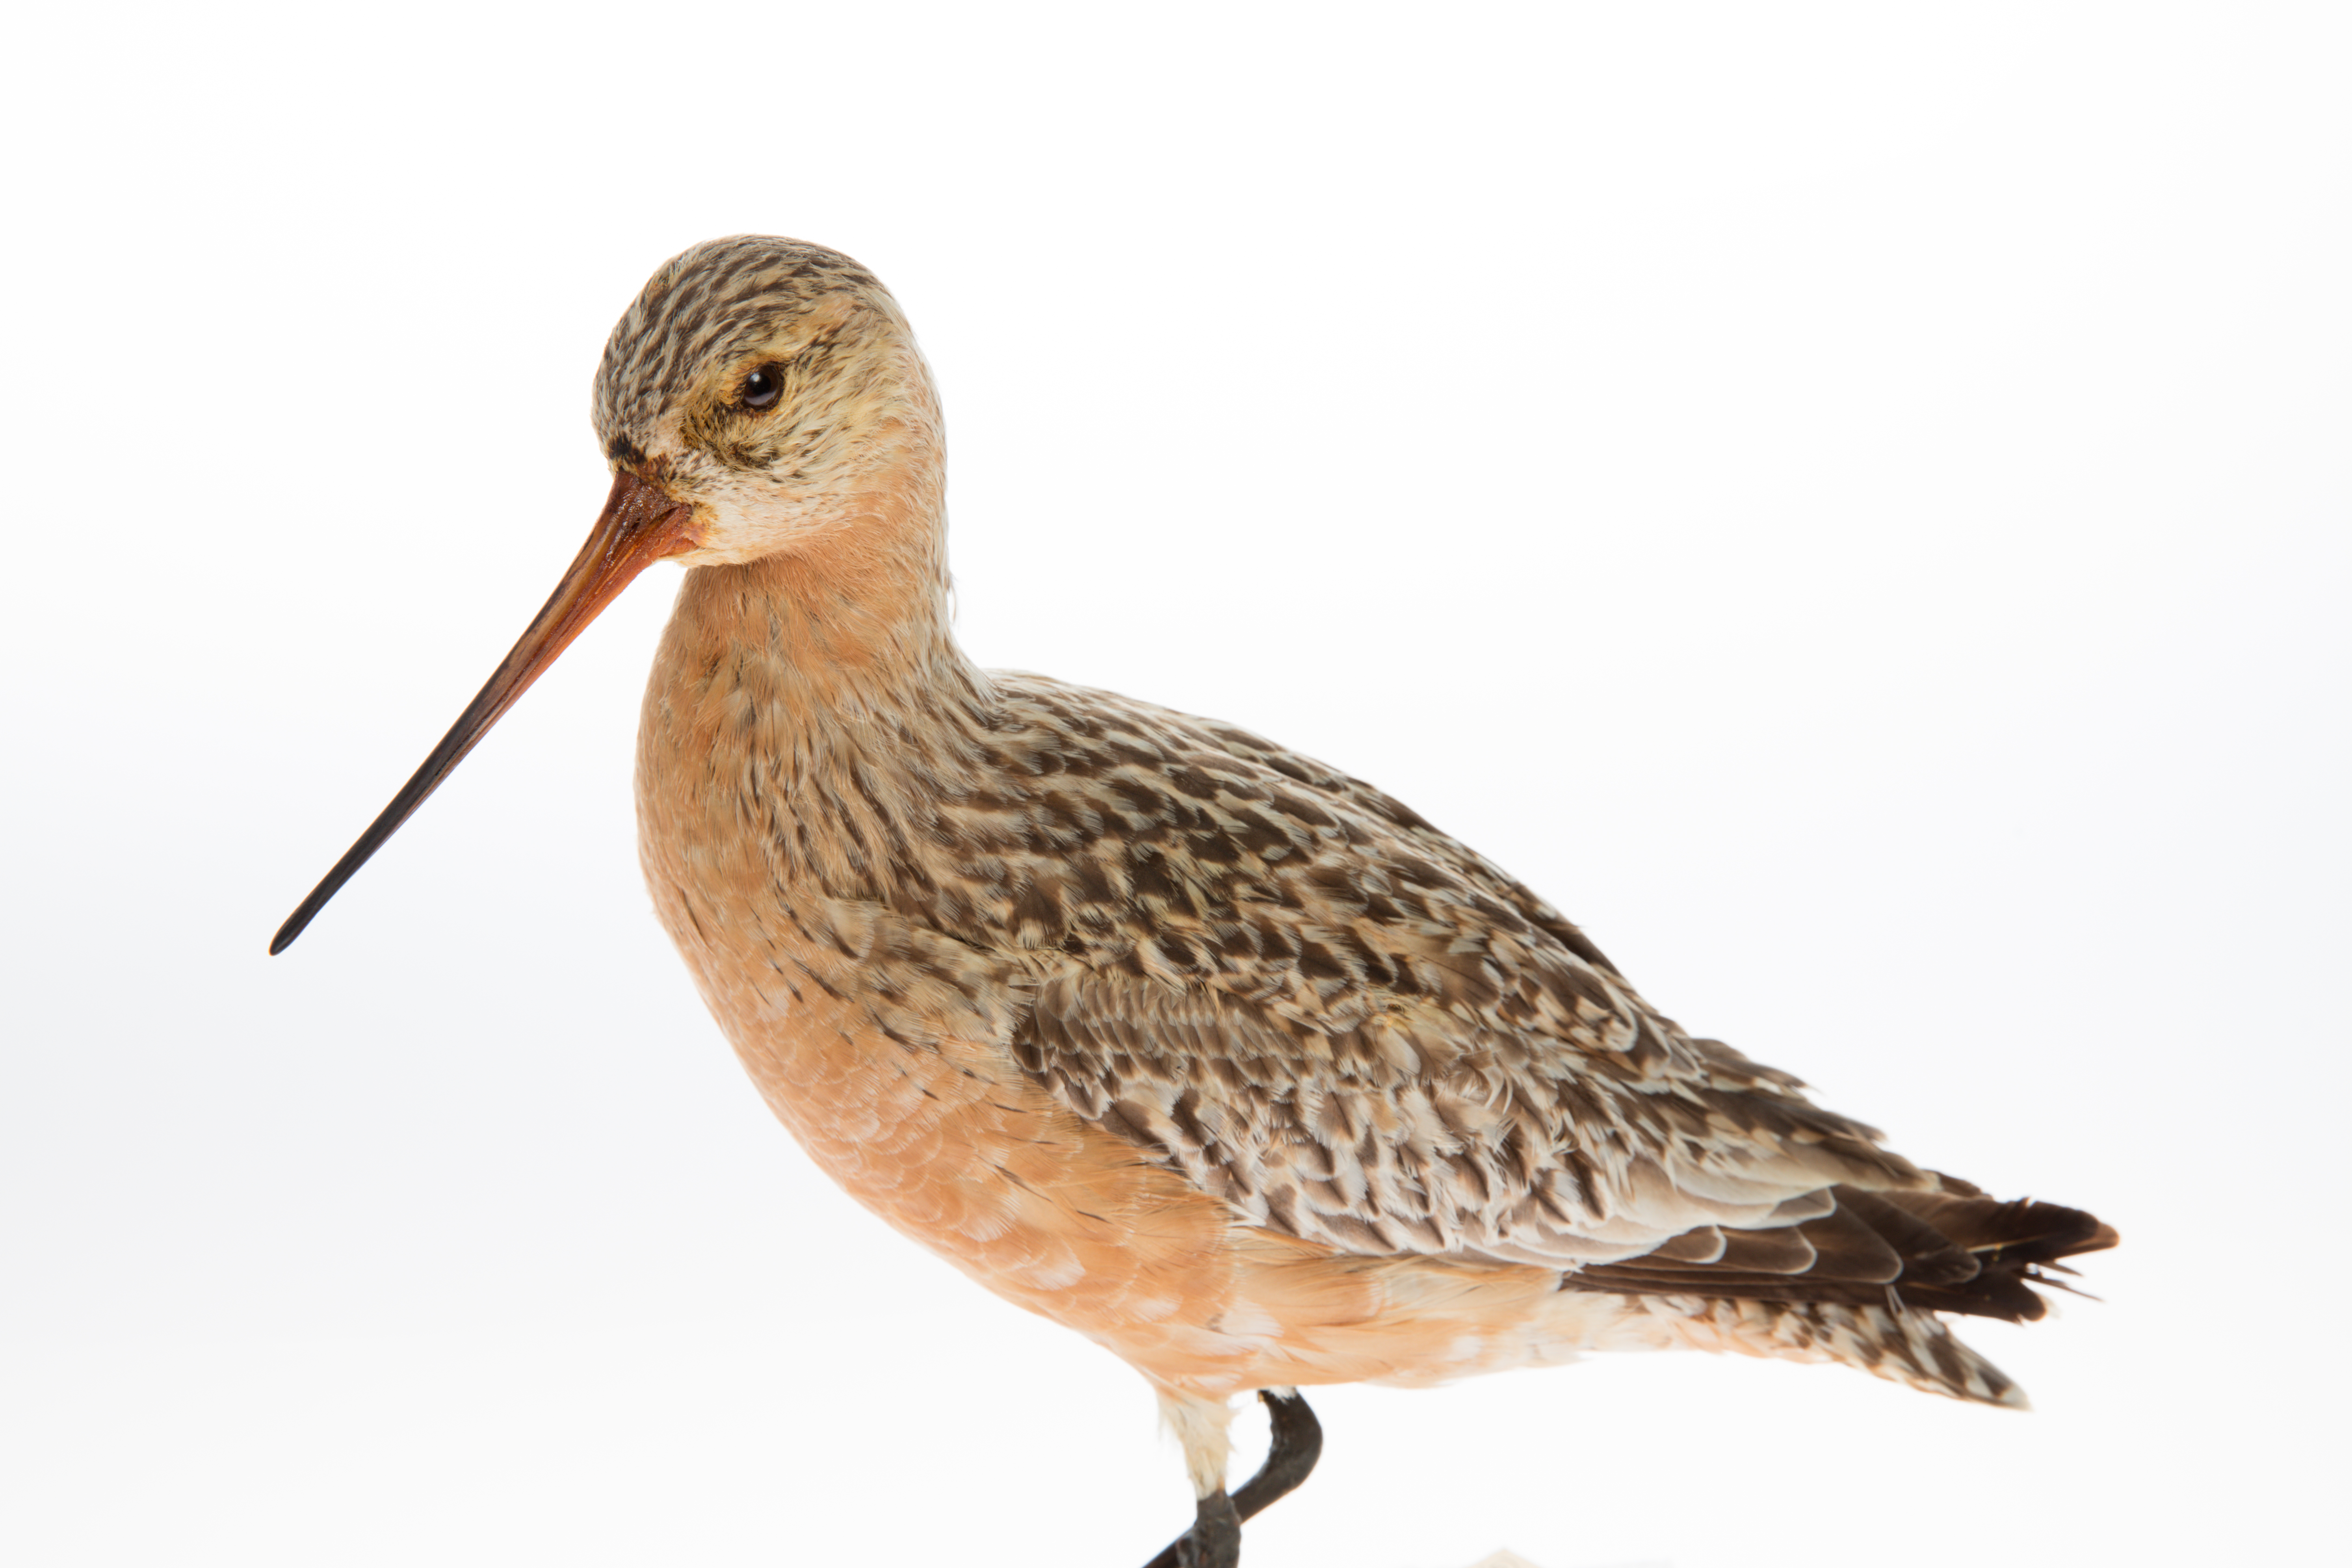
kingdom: Animalia
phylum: Chordata
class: Aves
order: Charadriiformes
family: Scolopacidae
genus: Limosa
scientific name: Limosa lapponica
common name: Bar-tailed godwit
